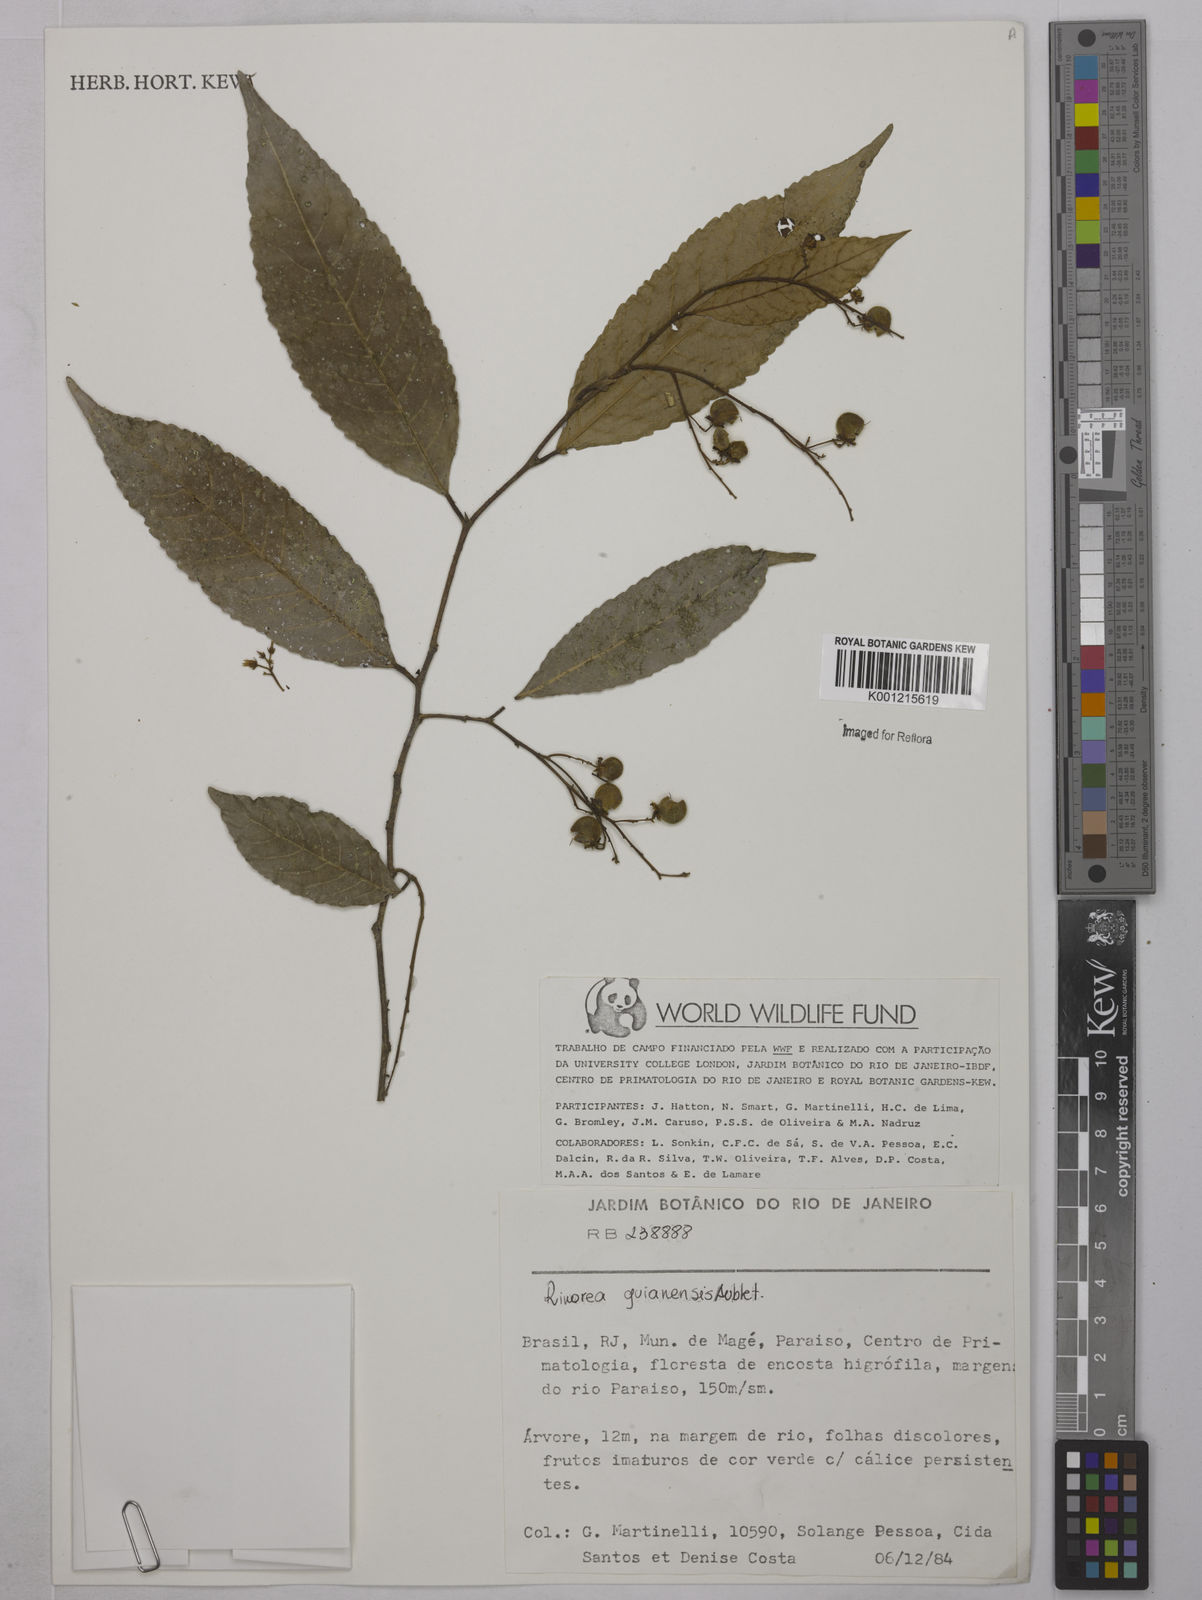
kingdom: Plantae
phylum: Tracheophyta
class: Magnoliopsida
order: Malpighiales
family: Violaceae
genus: Rinorea
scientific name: Rinorea guianensis
